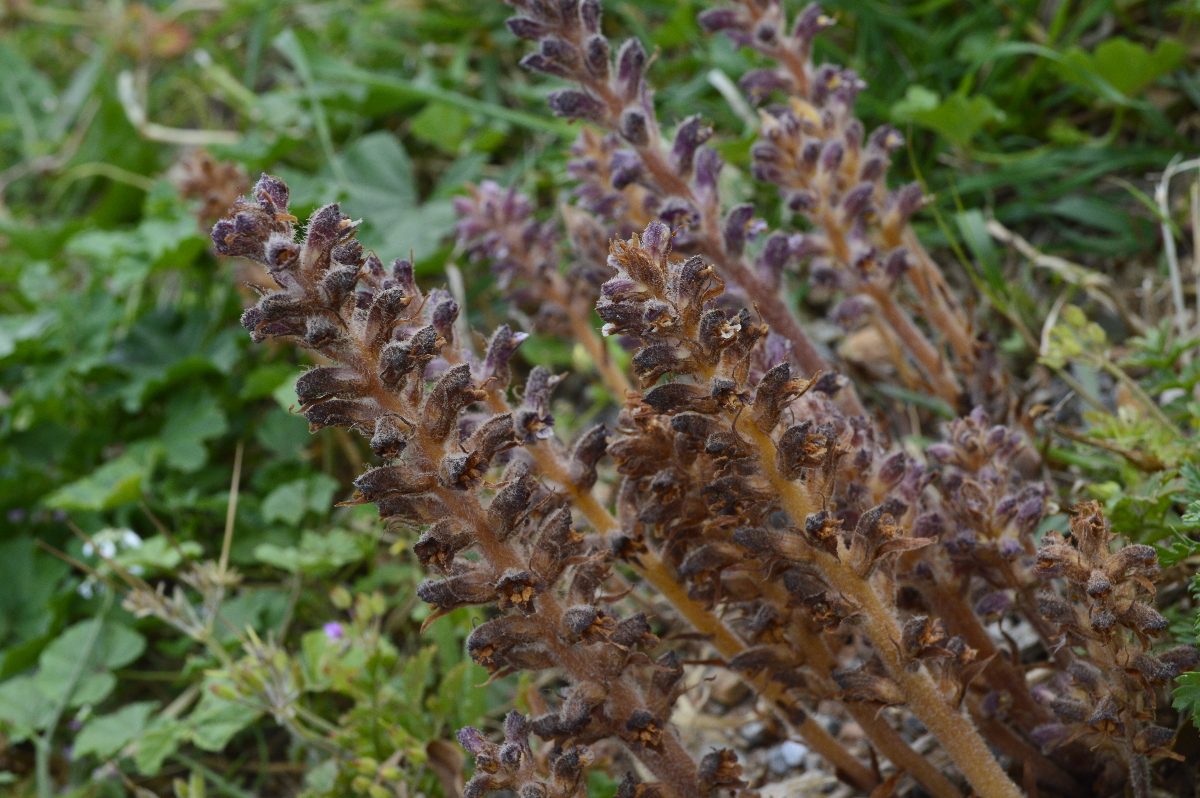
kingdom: Plantae
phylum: Tracheophyta
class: Magnoliopsida
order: Solanales
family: Convolvulaceae
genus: Convolvulus
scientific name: Convolvulus oleifolius
